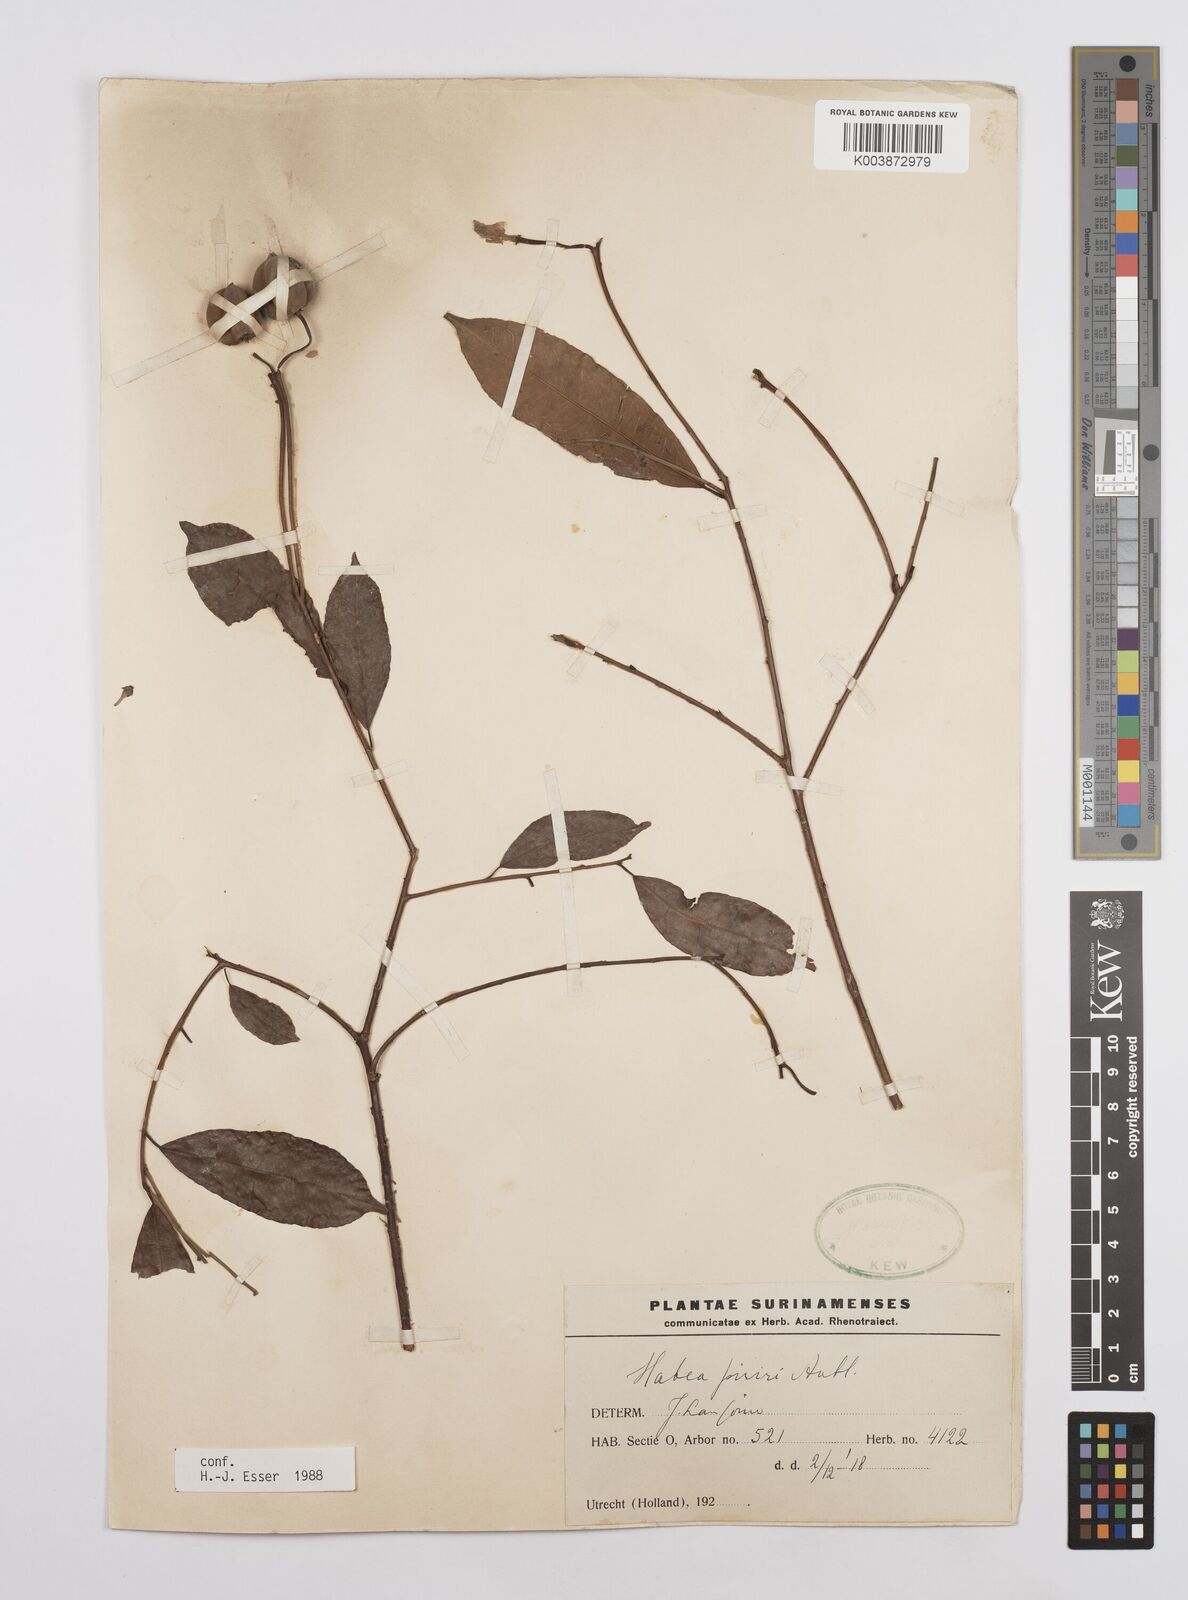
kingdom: Plantae
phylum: Tracheophyta
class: Magnoliopsida
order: Malpighiales
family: Euphorbiaceae
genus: Mabea
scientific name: Mabea piriri
